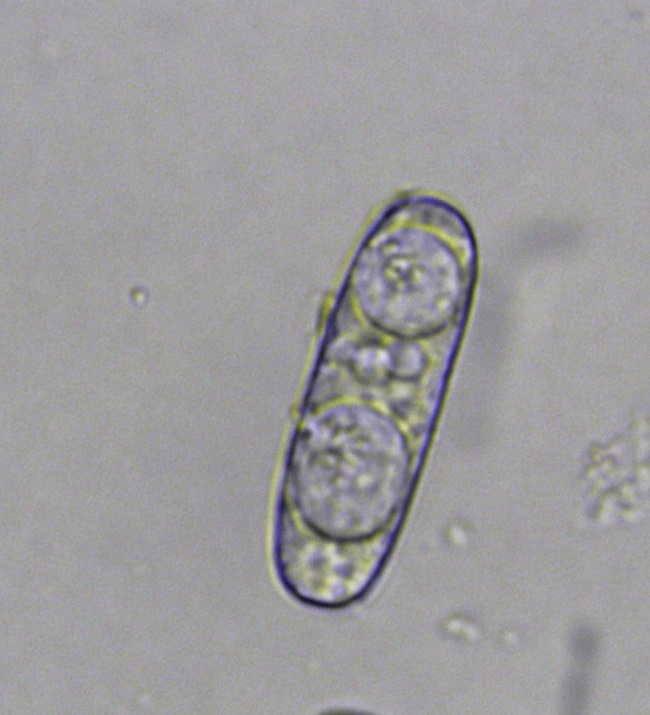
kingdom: Fungi
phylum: Ascomycota
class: Leotiomycetes
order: Helotiales
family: Erysiphaceae
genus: Erysiphe
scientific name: Erysiphe
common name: meldug
